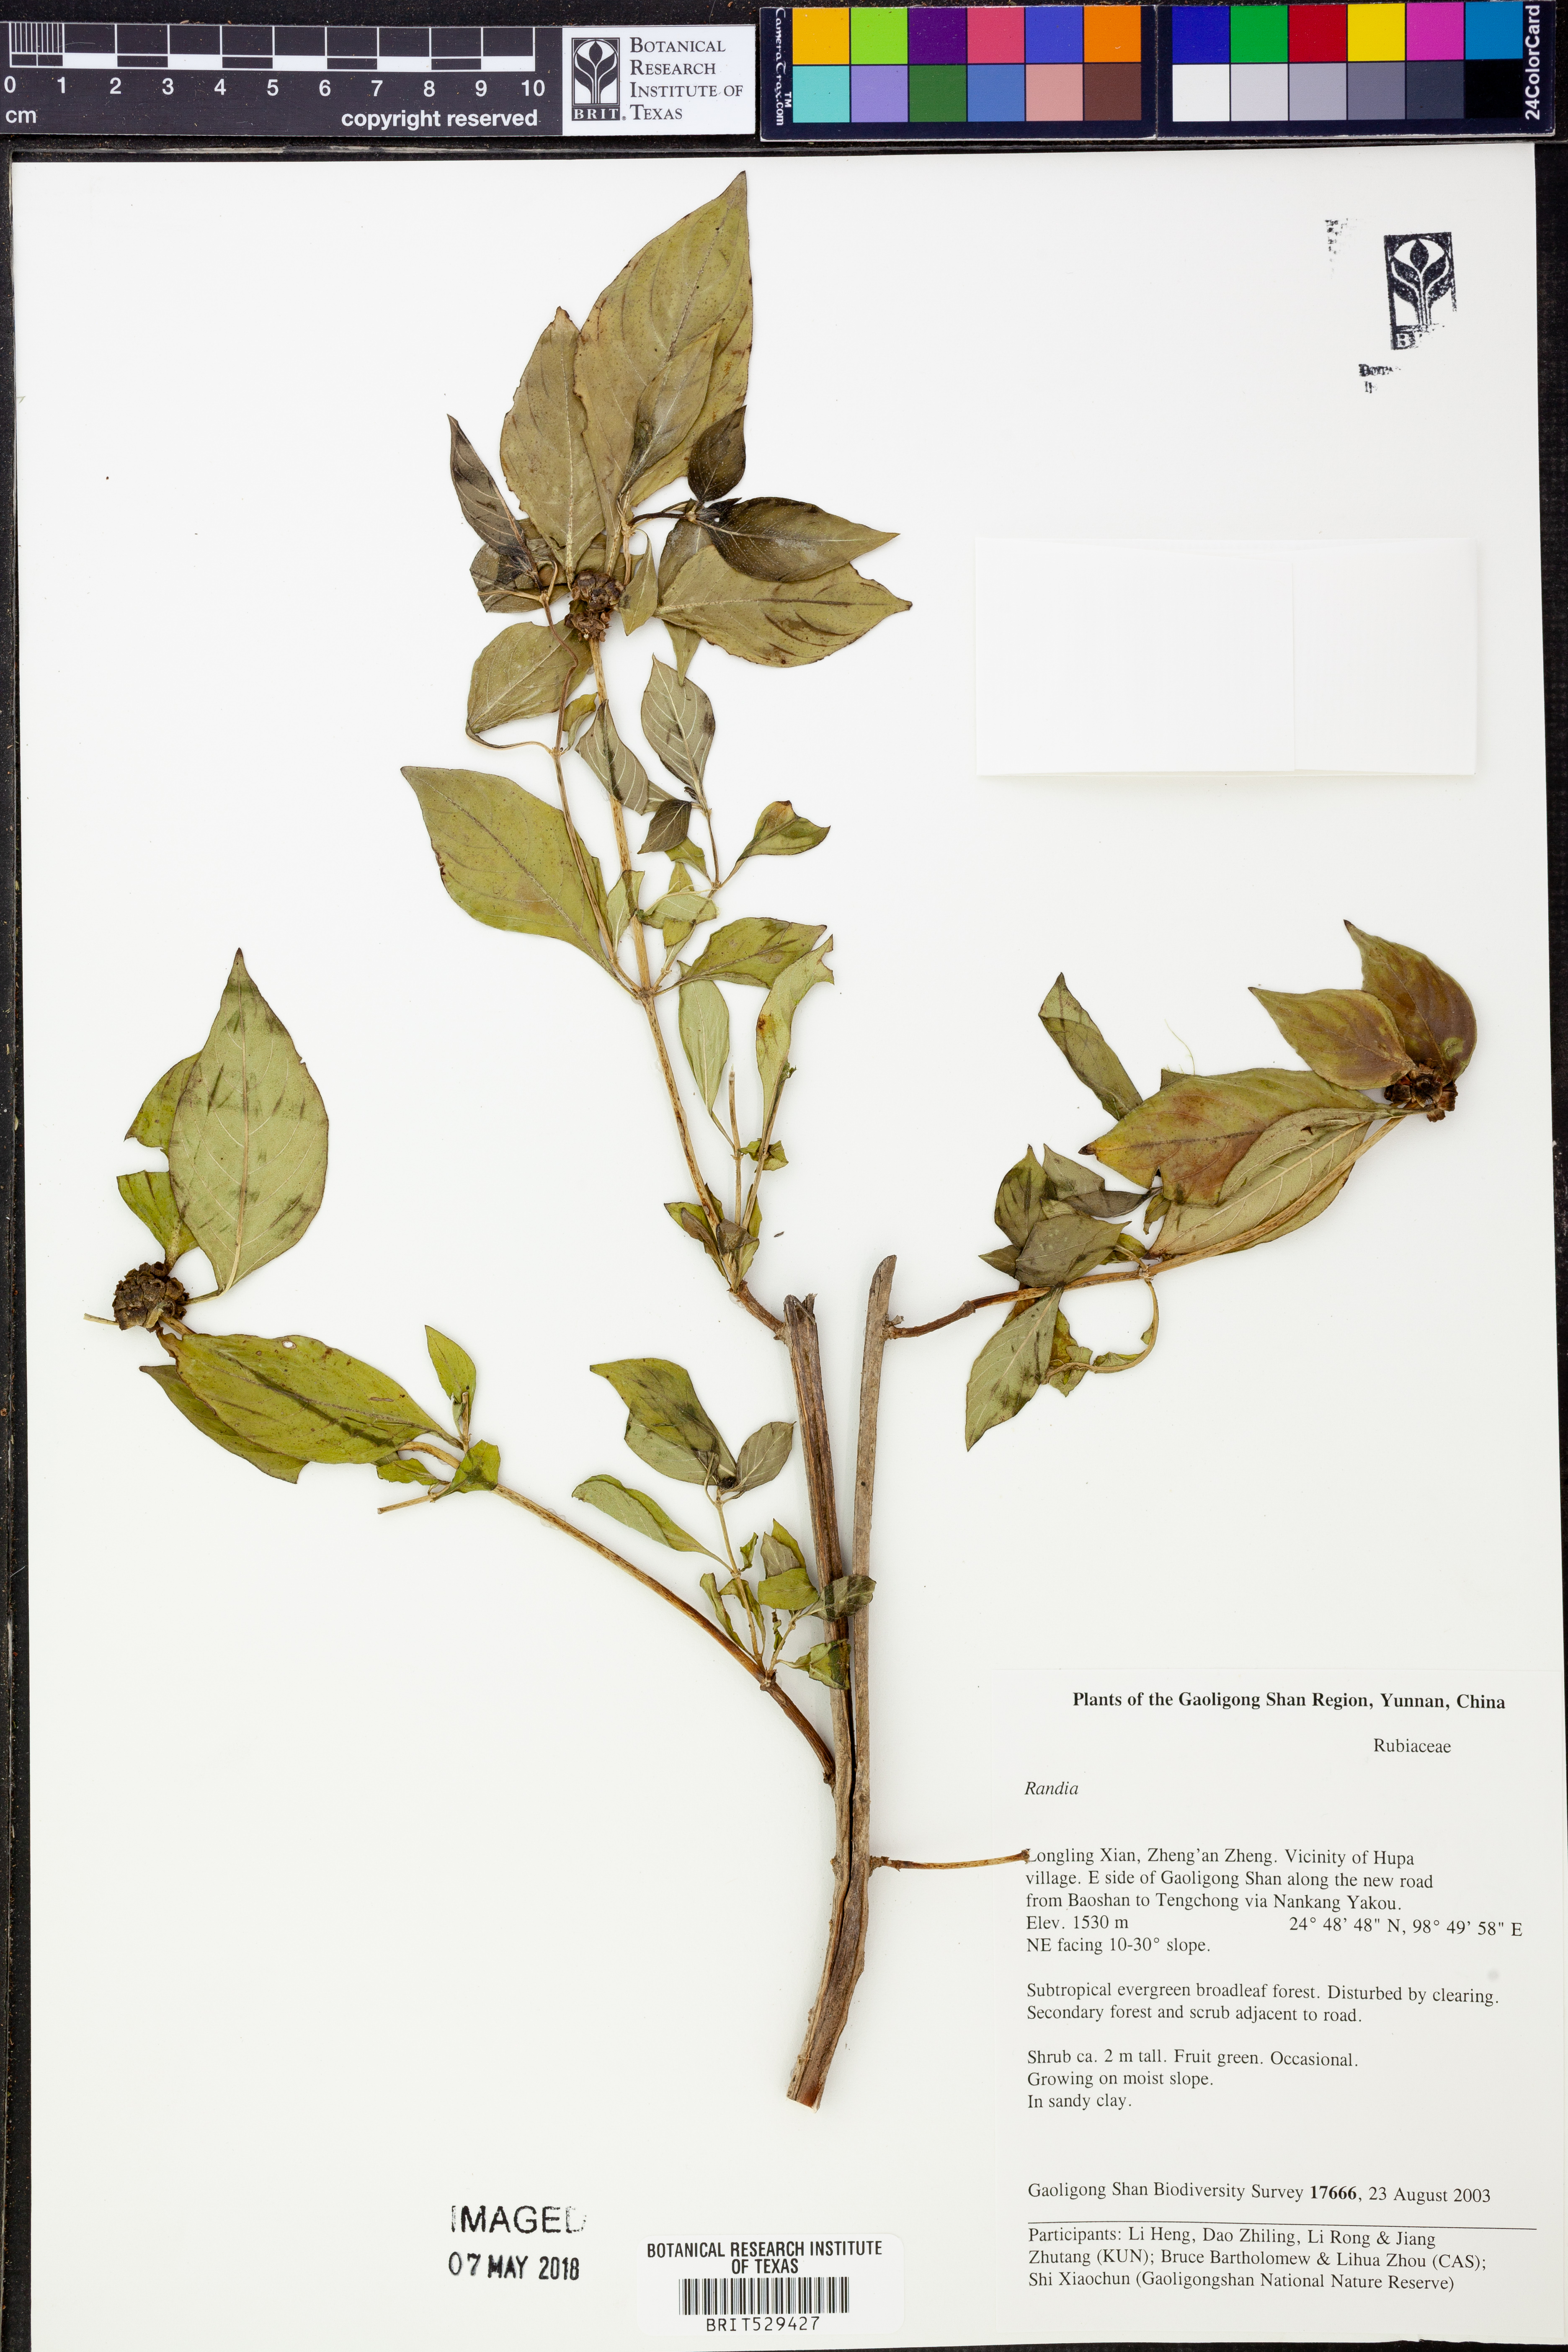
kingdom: Plantae
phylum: Tracheophyta
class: Magnoliopsida
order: Gentianales
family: Rubiaceae
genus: Randia
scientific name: Randia
